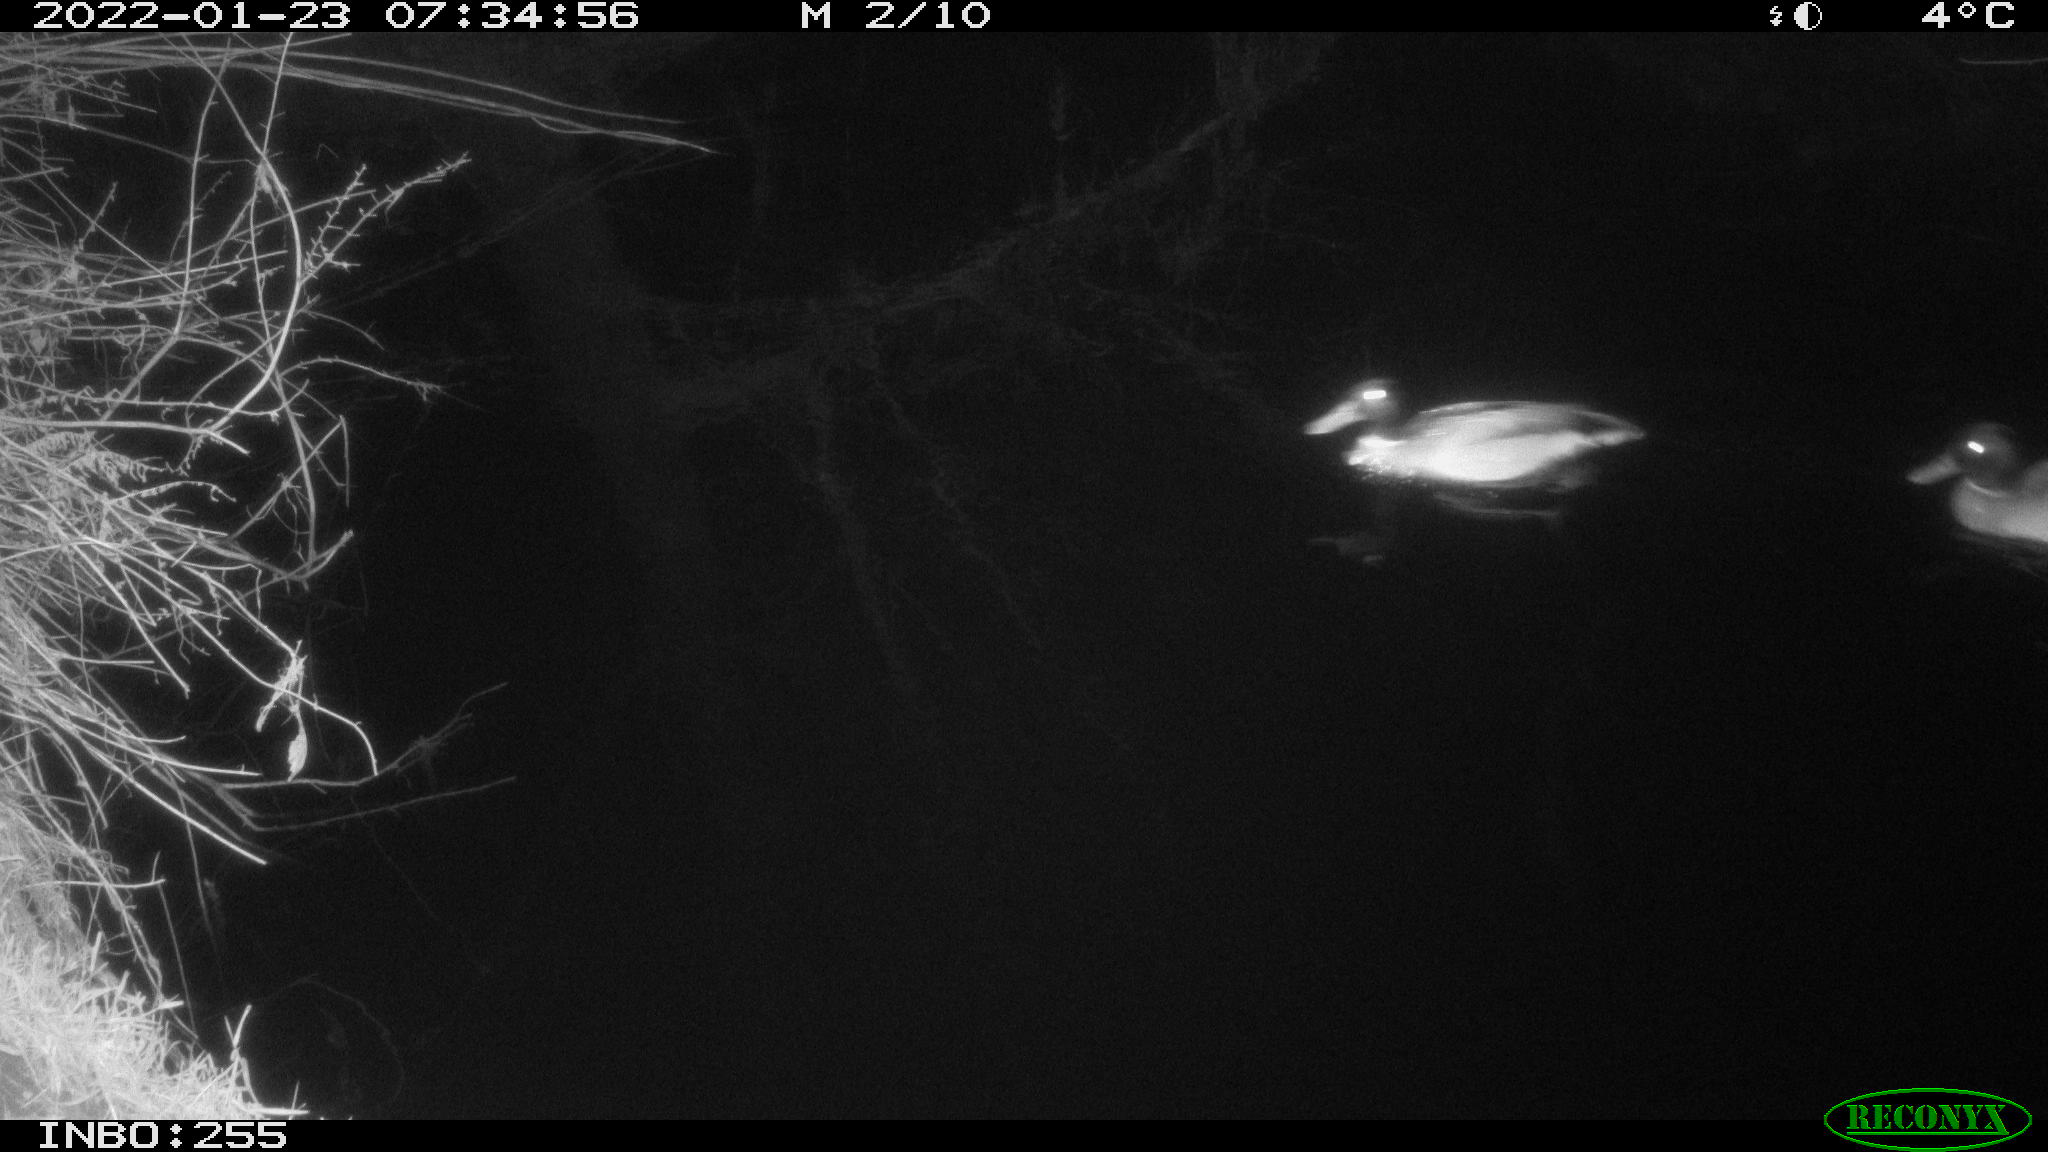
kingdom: Animalia
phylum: Chordata
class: Aves
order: Anseriformes
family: Anatidae
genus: Anas
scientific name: Anas
